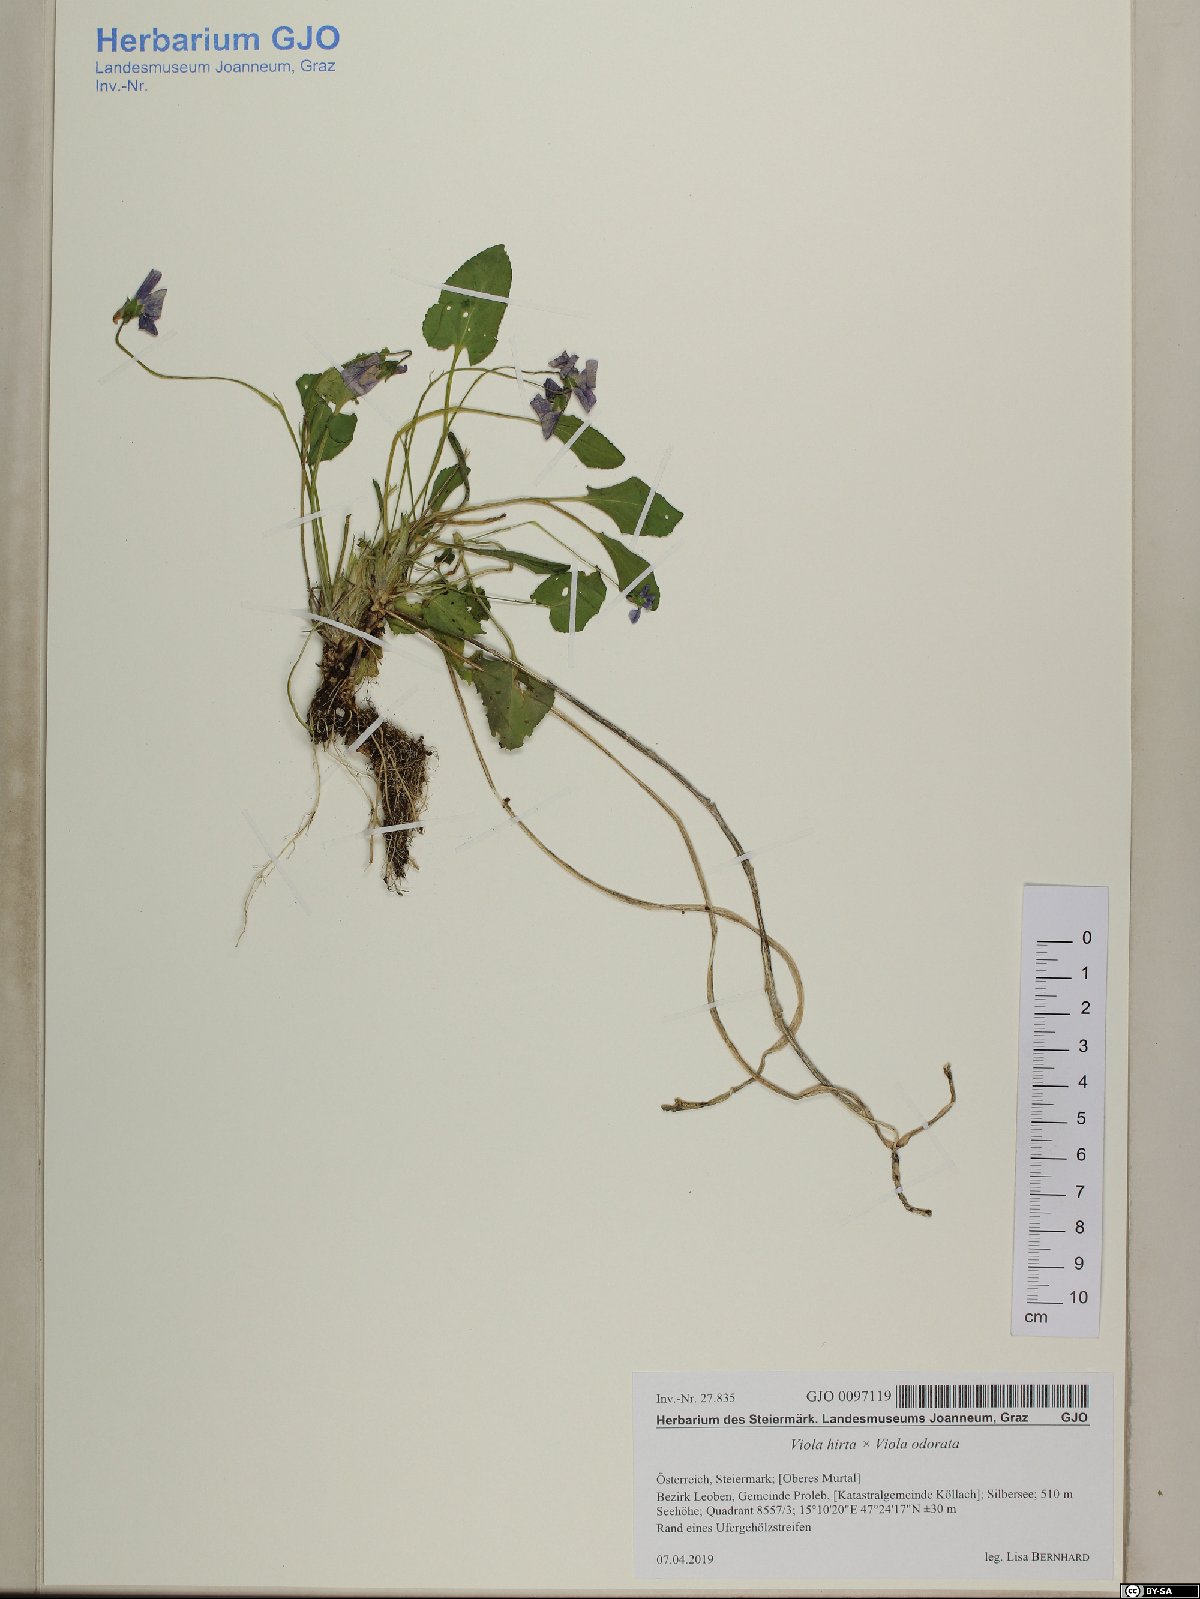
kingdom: Plantae
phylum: Tracheophyta
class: Magnoliopsida
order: Malpighiales
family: Violaceae
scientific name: Violaceae
